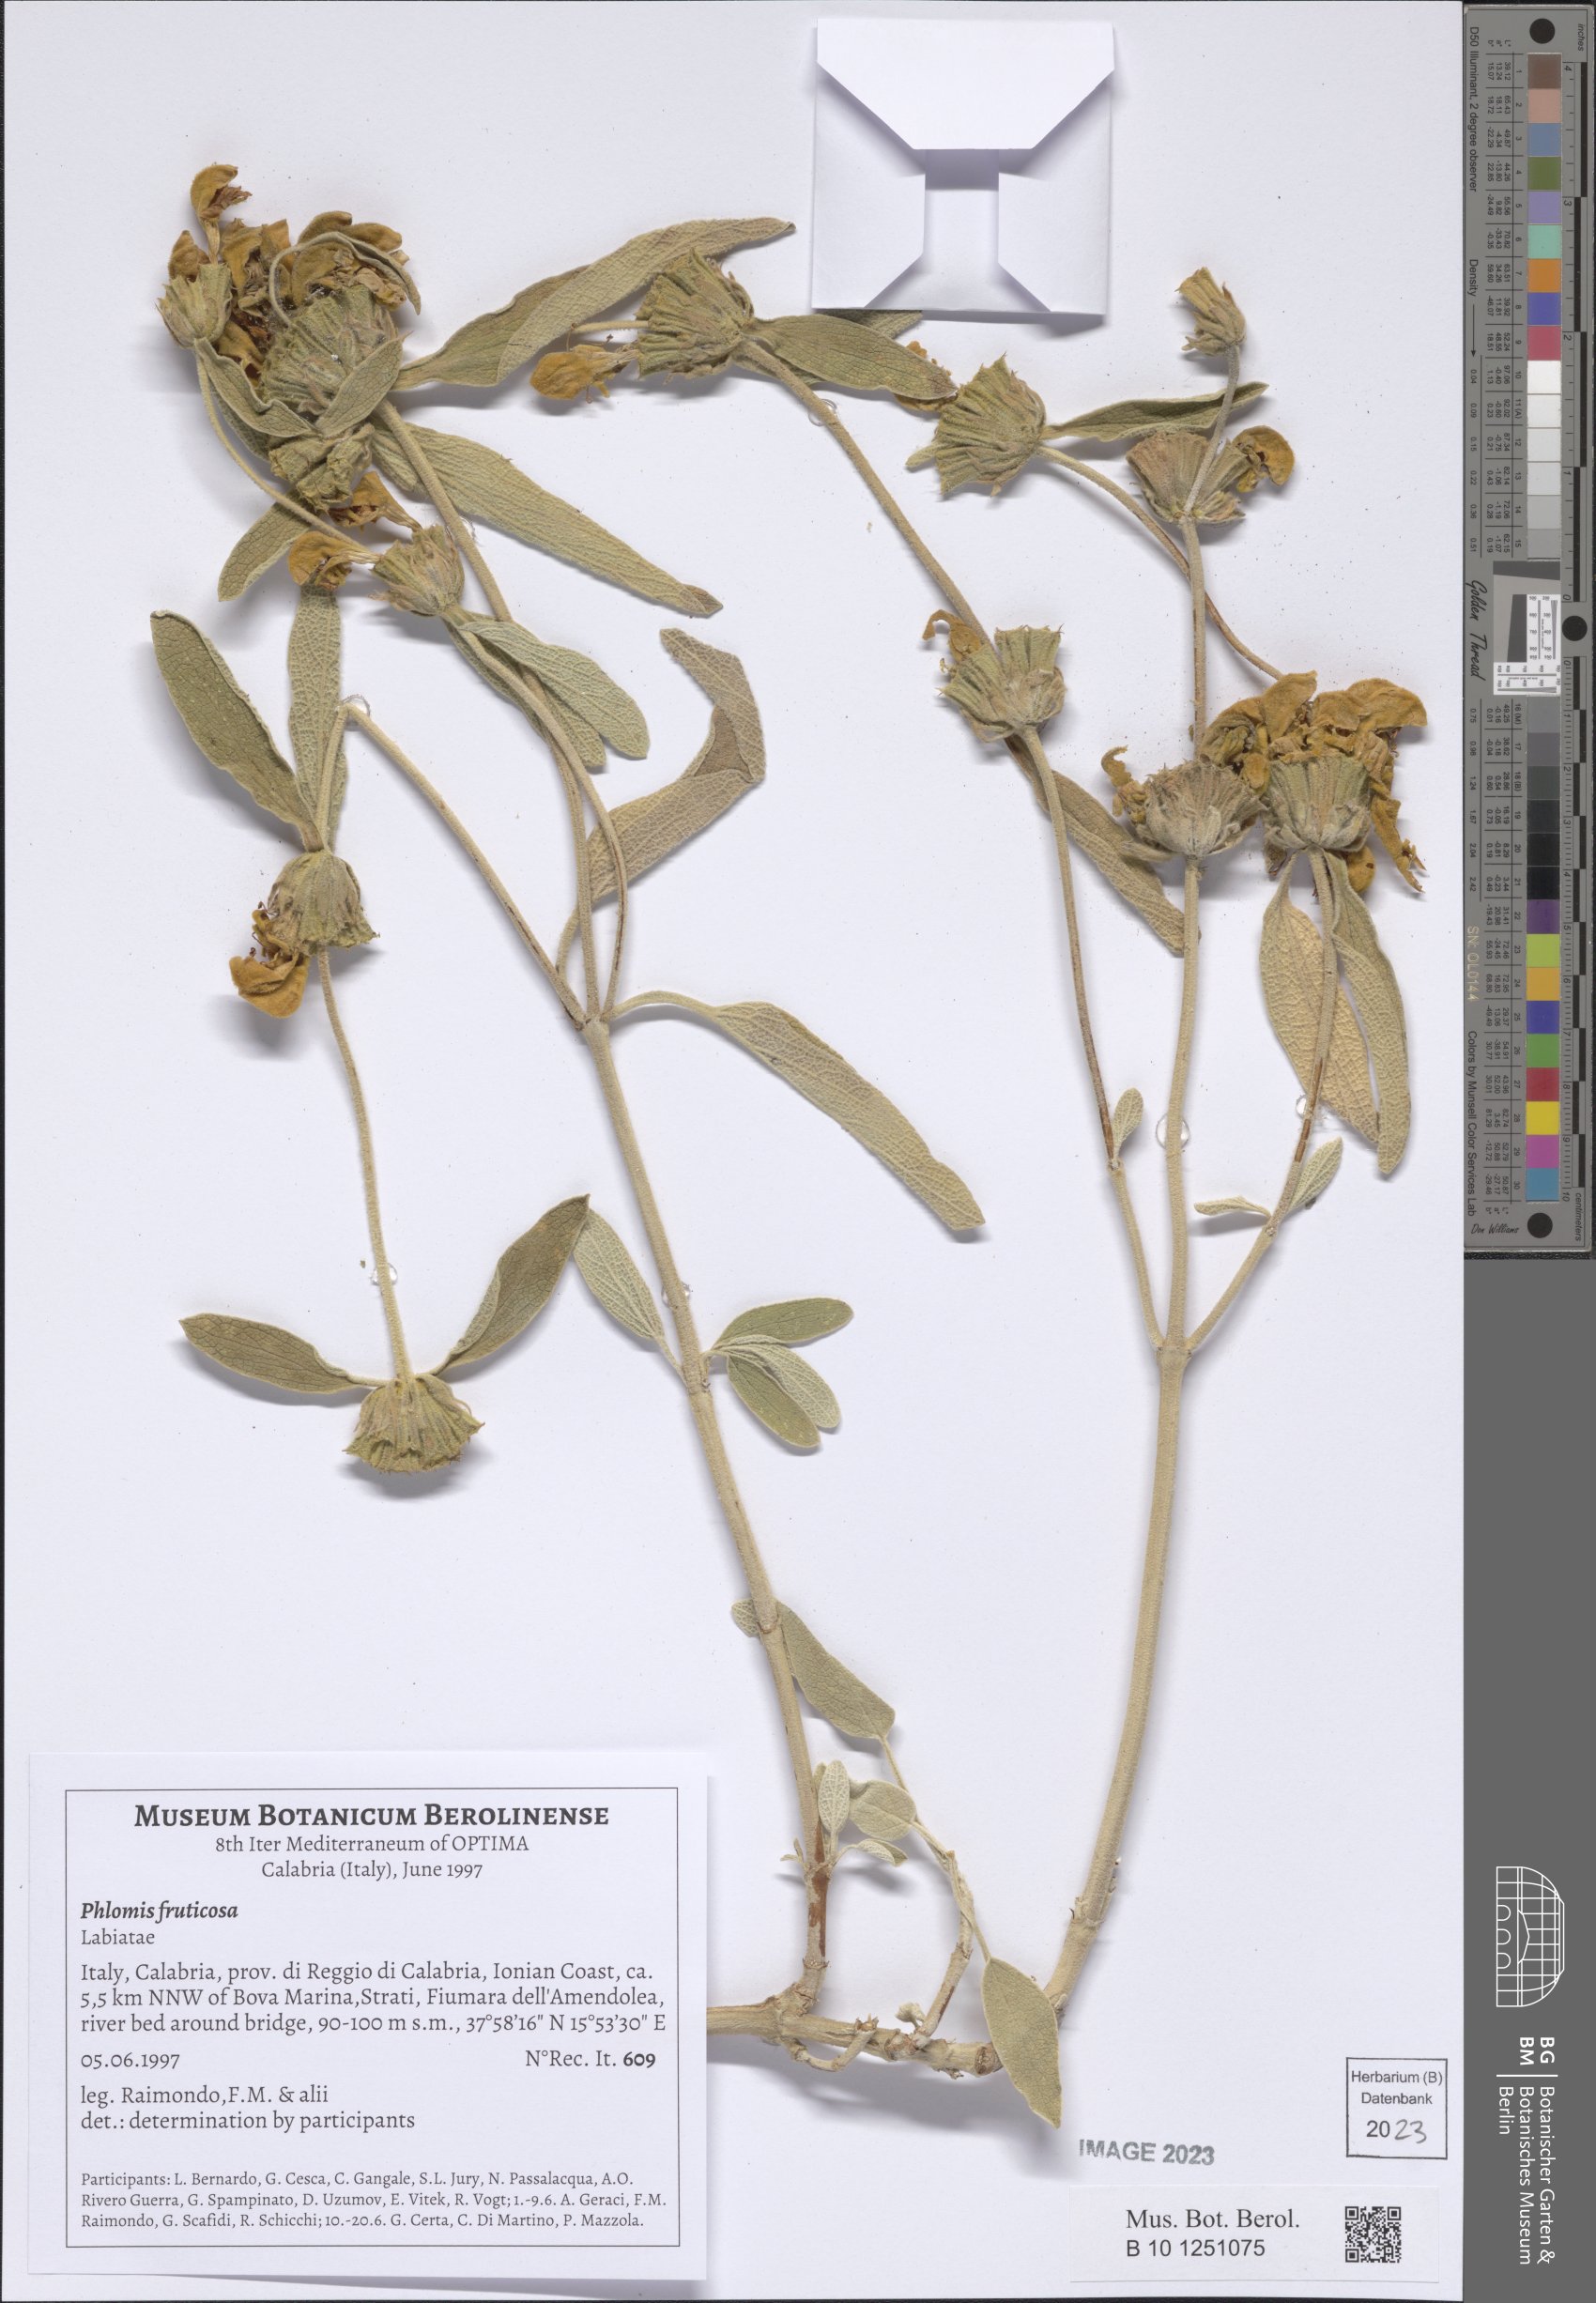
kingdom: Plantae
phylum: Tracheophyta
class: Magnoliopsida
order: Lamiales
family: Lamiaceae
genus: Phlomis
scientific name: Phlomis fruticosa
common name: Jerusalem sage
